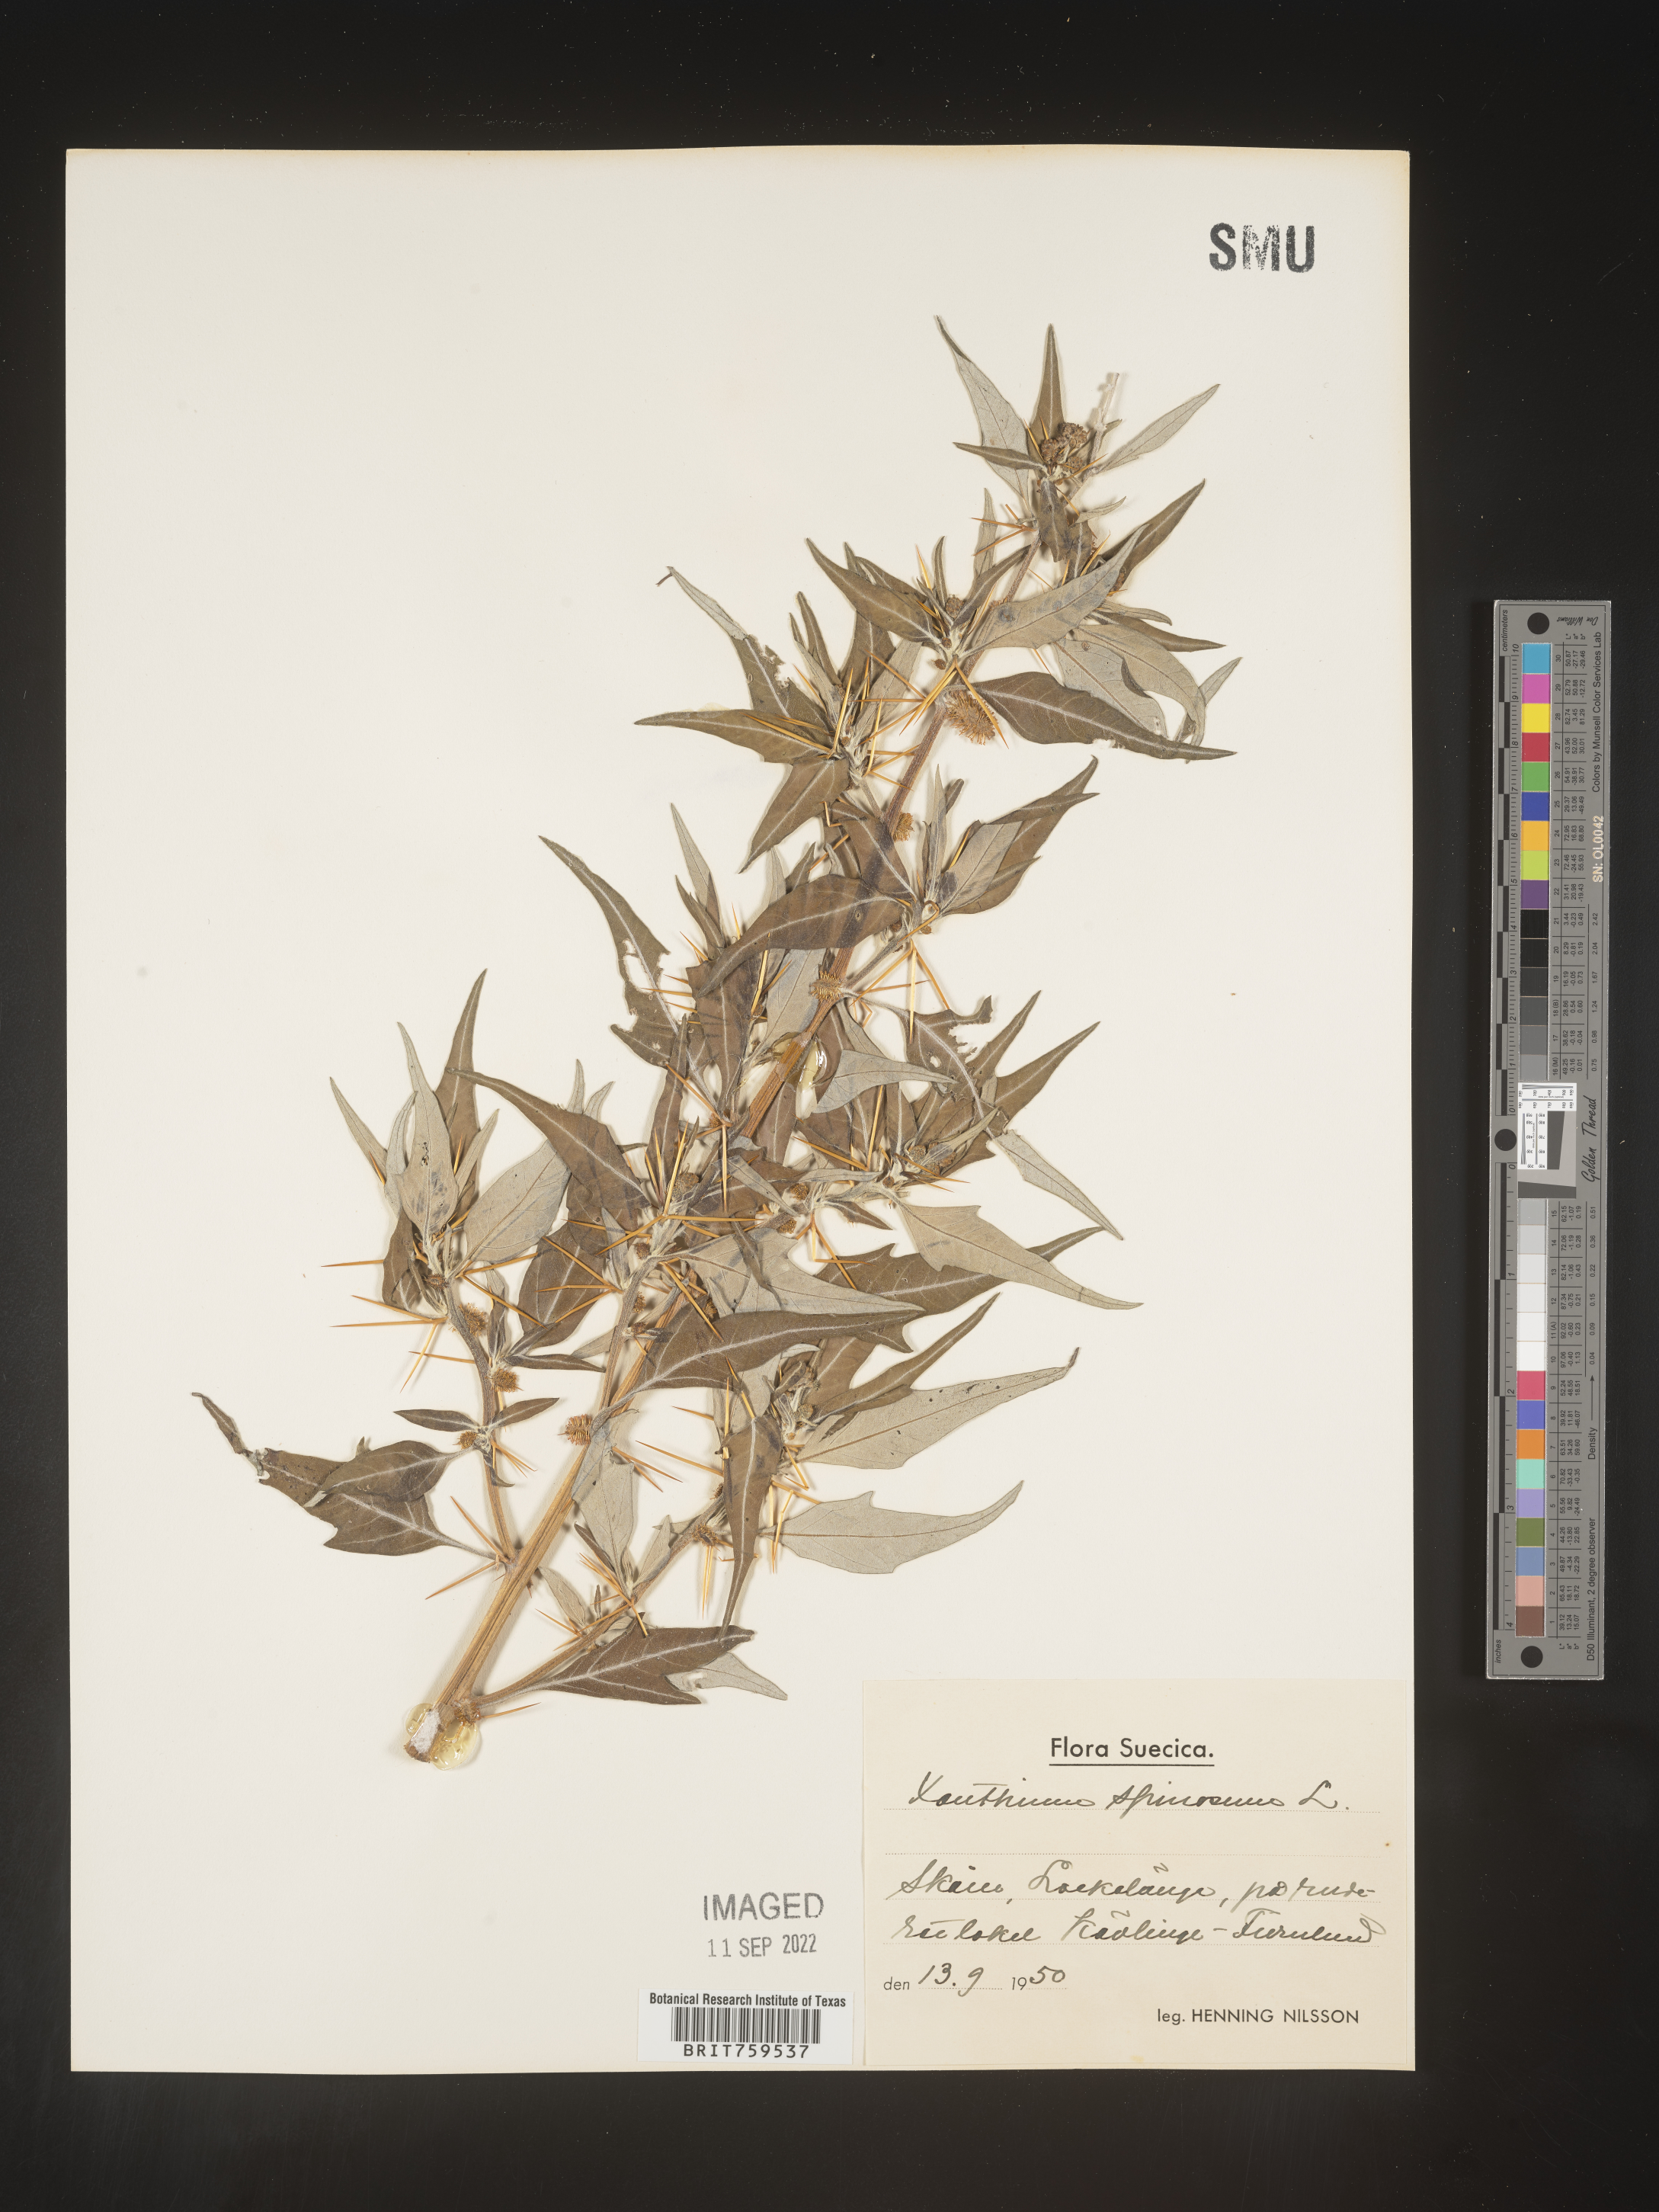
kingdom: Plantae
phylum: Tracheophyta
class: Magnoliopsida
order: Asterales
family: Asteraceae
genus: Xanthium
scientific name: Xanthium
